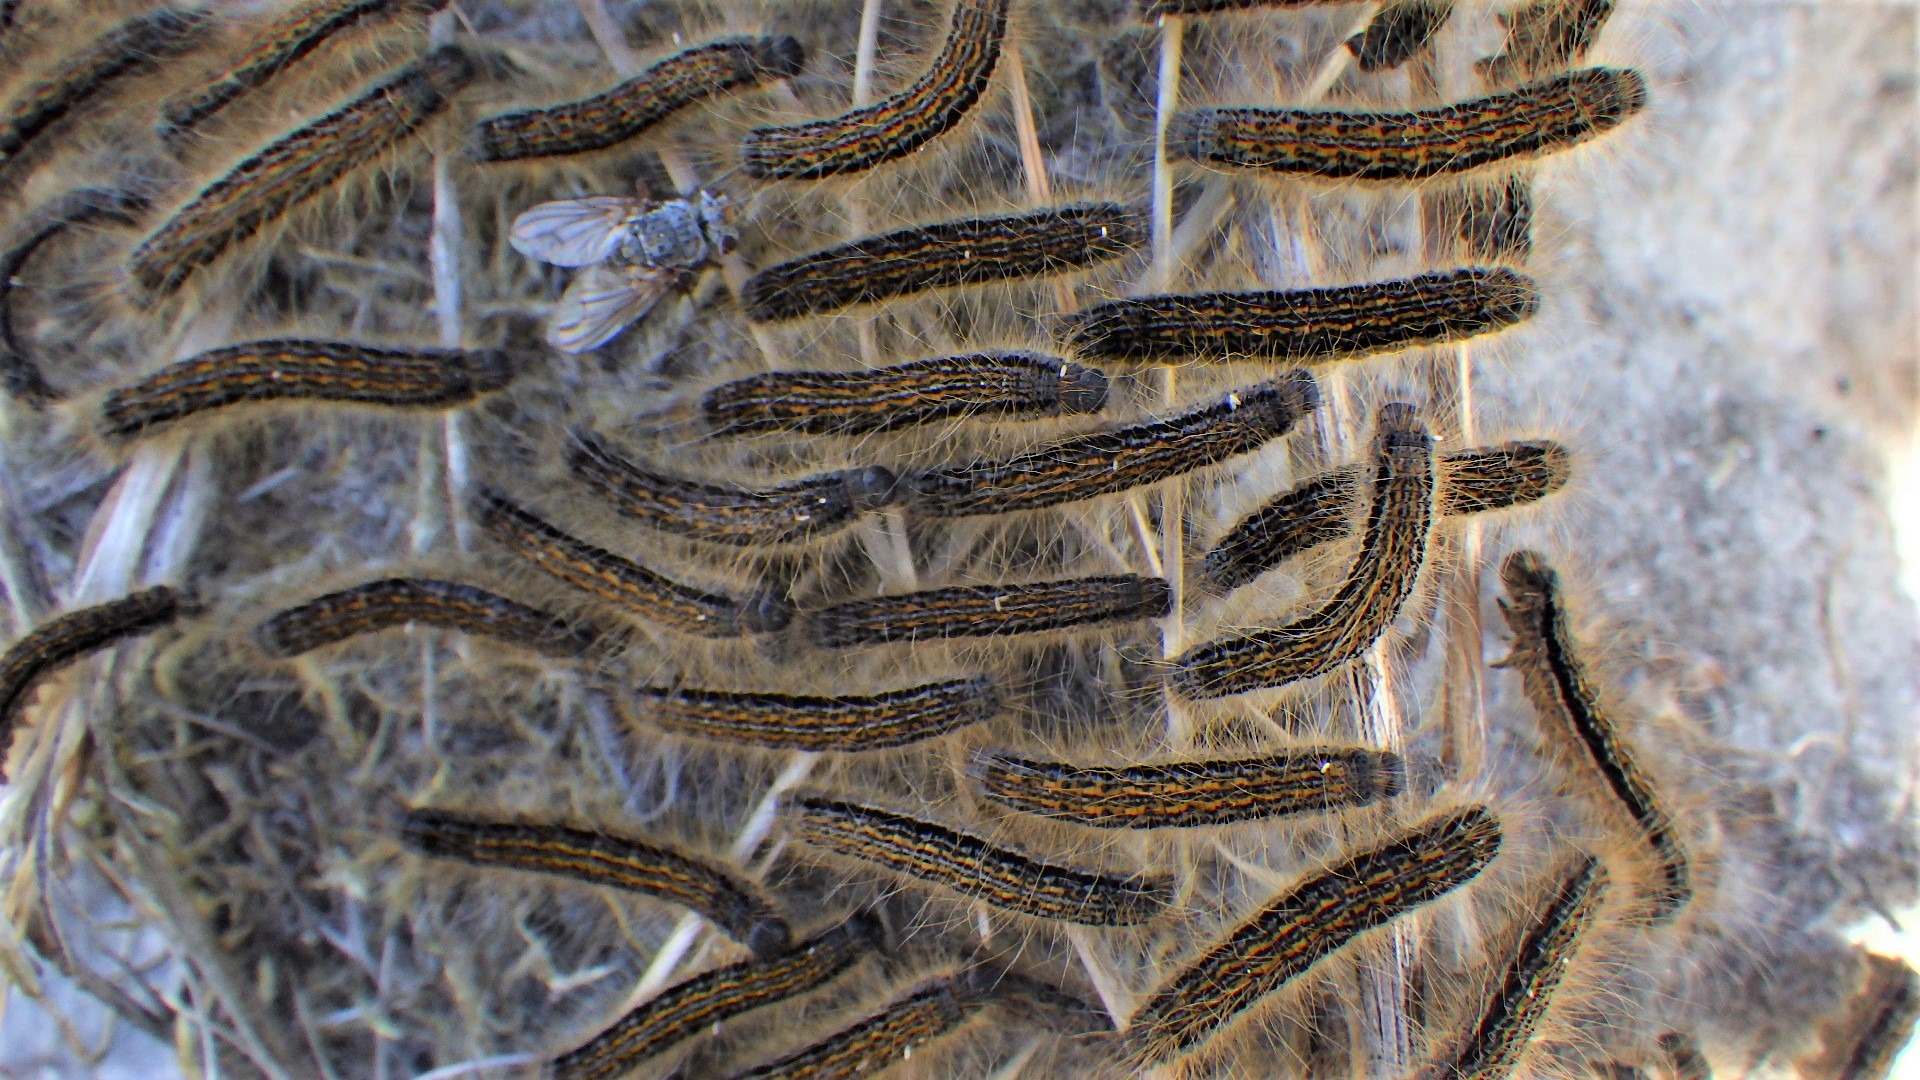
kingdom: Animalia
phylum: Arthropoda
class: Insecta
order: Lepidoptera
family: Lasiocampidae
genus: Malacosoma
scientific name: Malacosoma castrensis
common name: Redespinder
